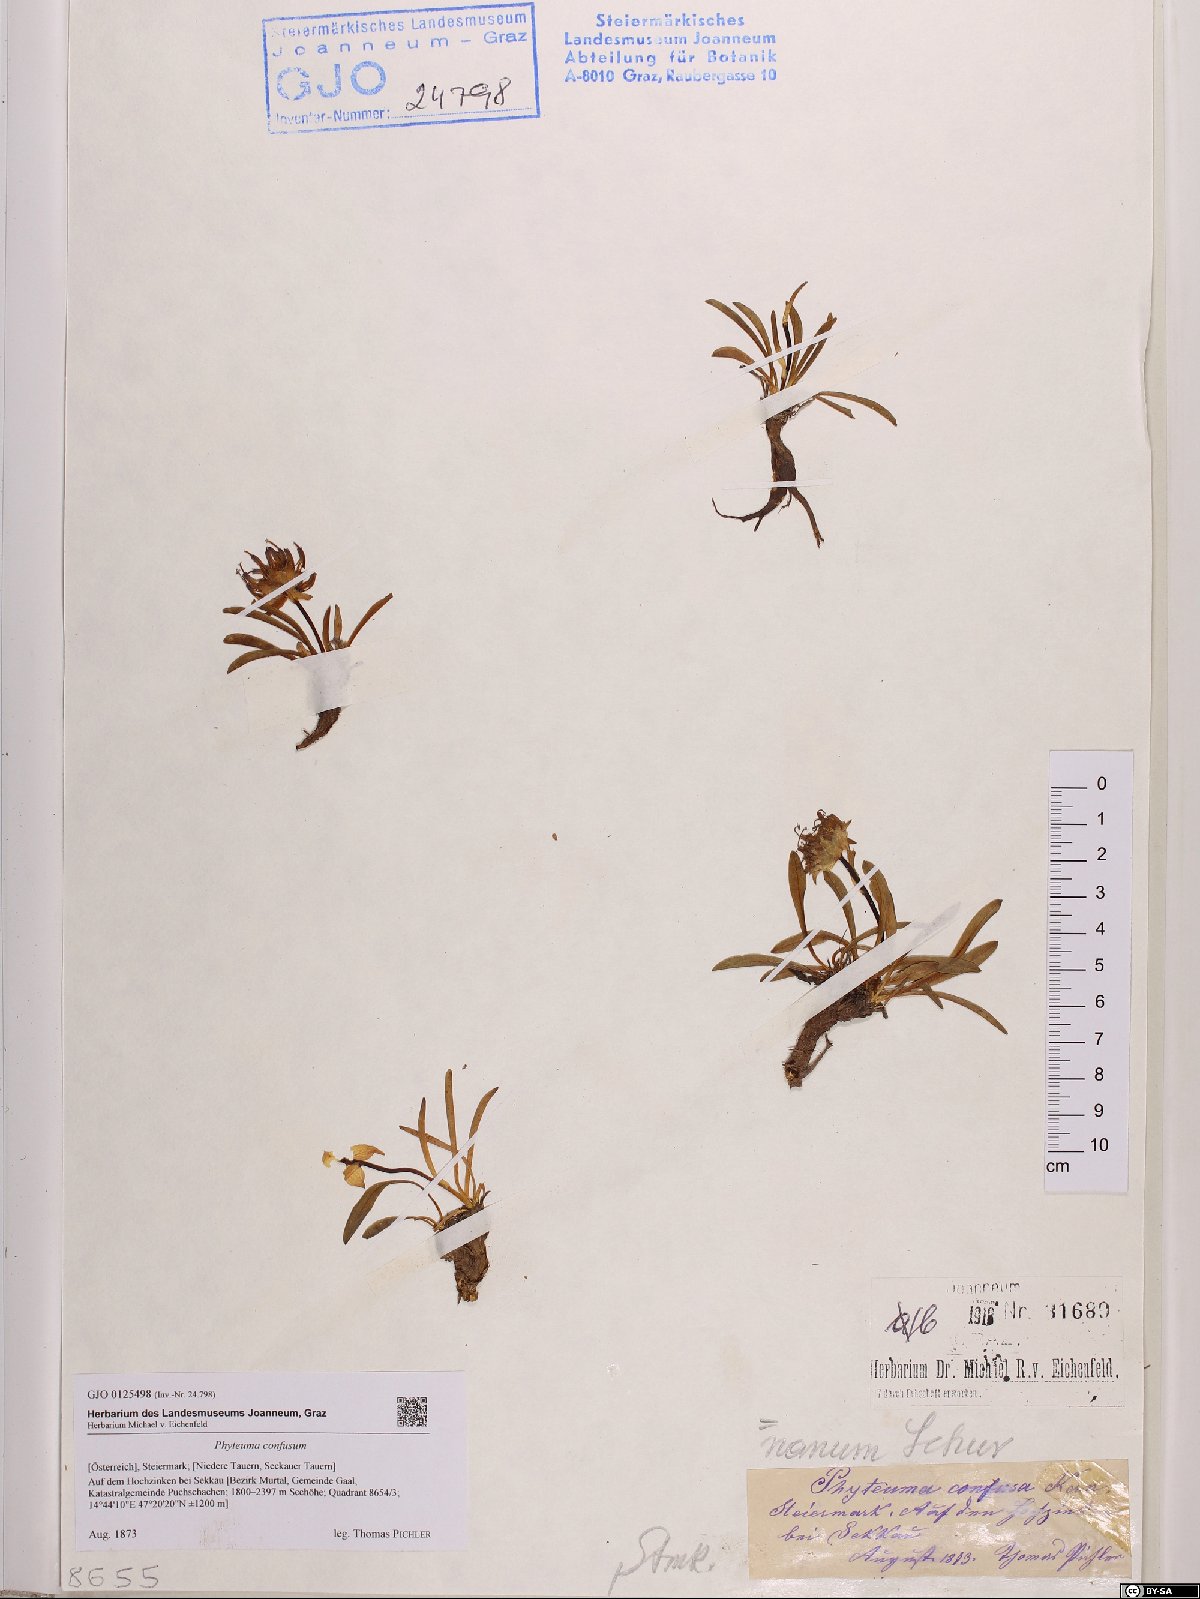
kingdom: Plantae
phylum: Tracheophyta
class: Magnoliopsida
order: Asterales
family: Campanulaceae
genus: Phyteuma
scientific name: Phyteuma confusum
